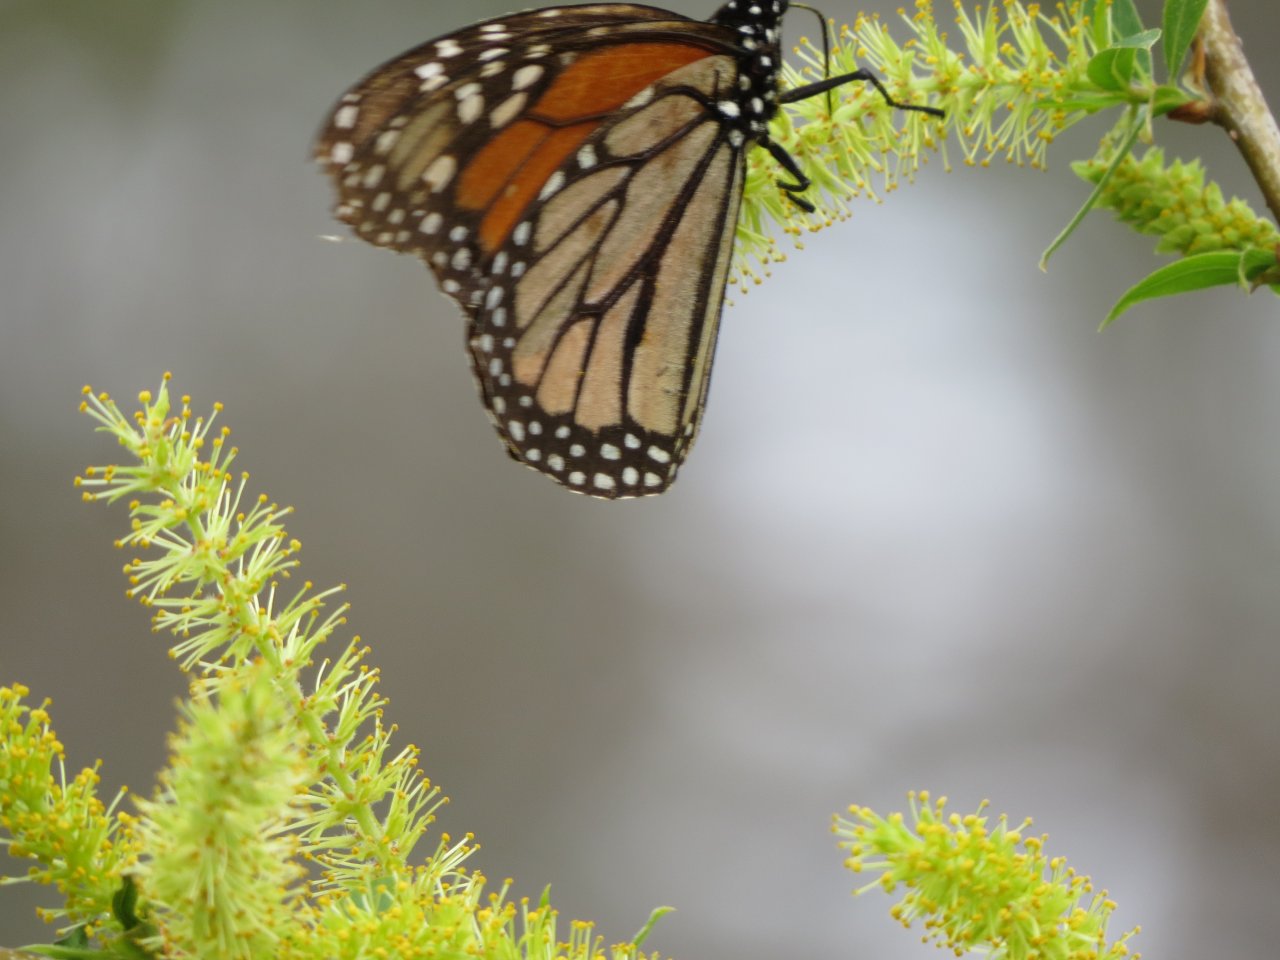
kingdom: Animalia
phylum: Arthropoda
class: Insecta
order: Lepidoptera
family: Nymphalidae
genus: Danaus
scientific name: Danaus plexippus
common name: Monarch
